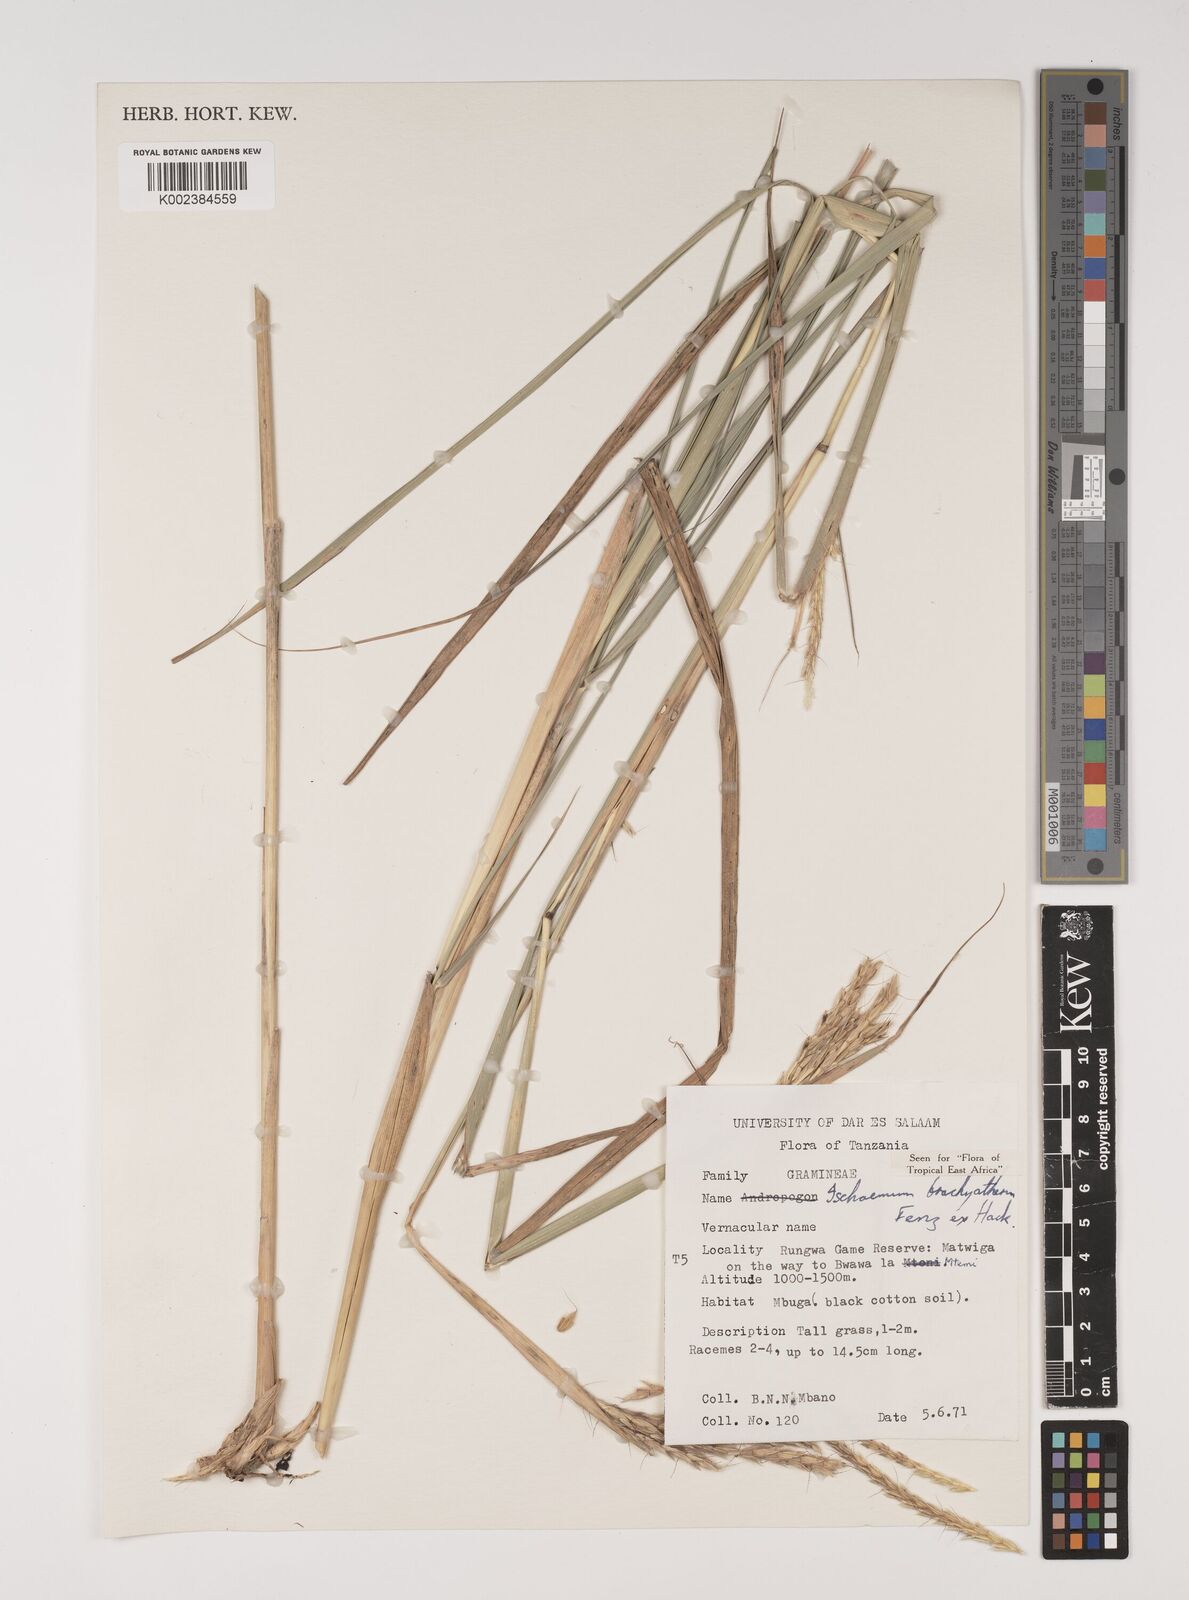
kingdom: Plantae
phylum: Tracheophyta
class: Liliopsida
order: Poales
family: Poaceae
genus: Ischaemum
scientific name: Ischaemum afrum
